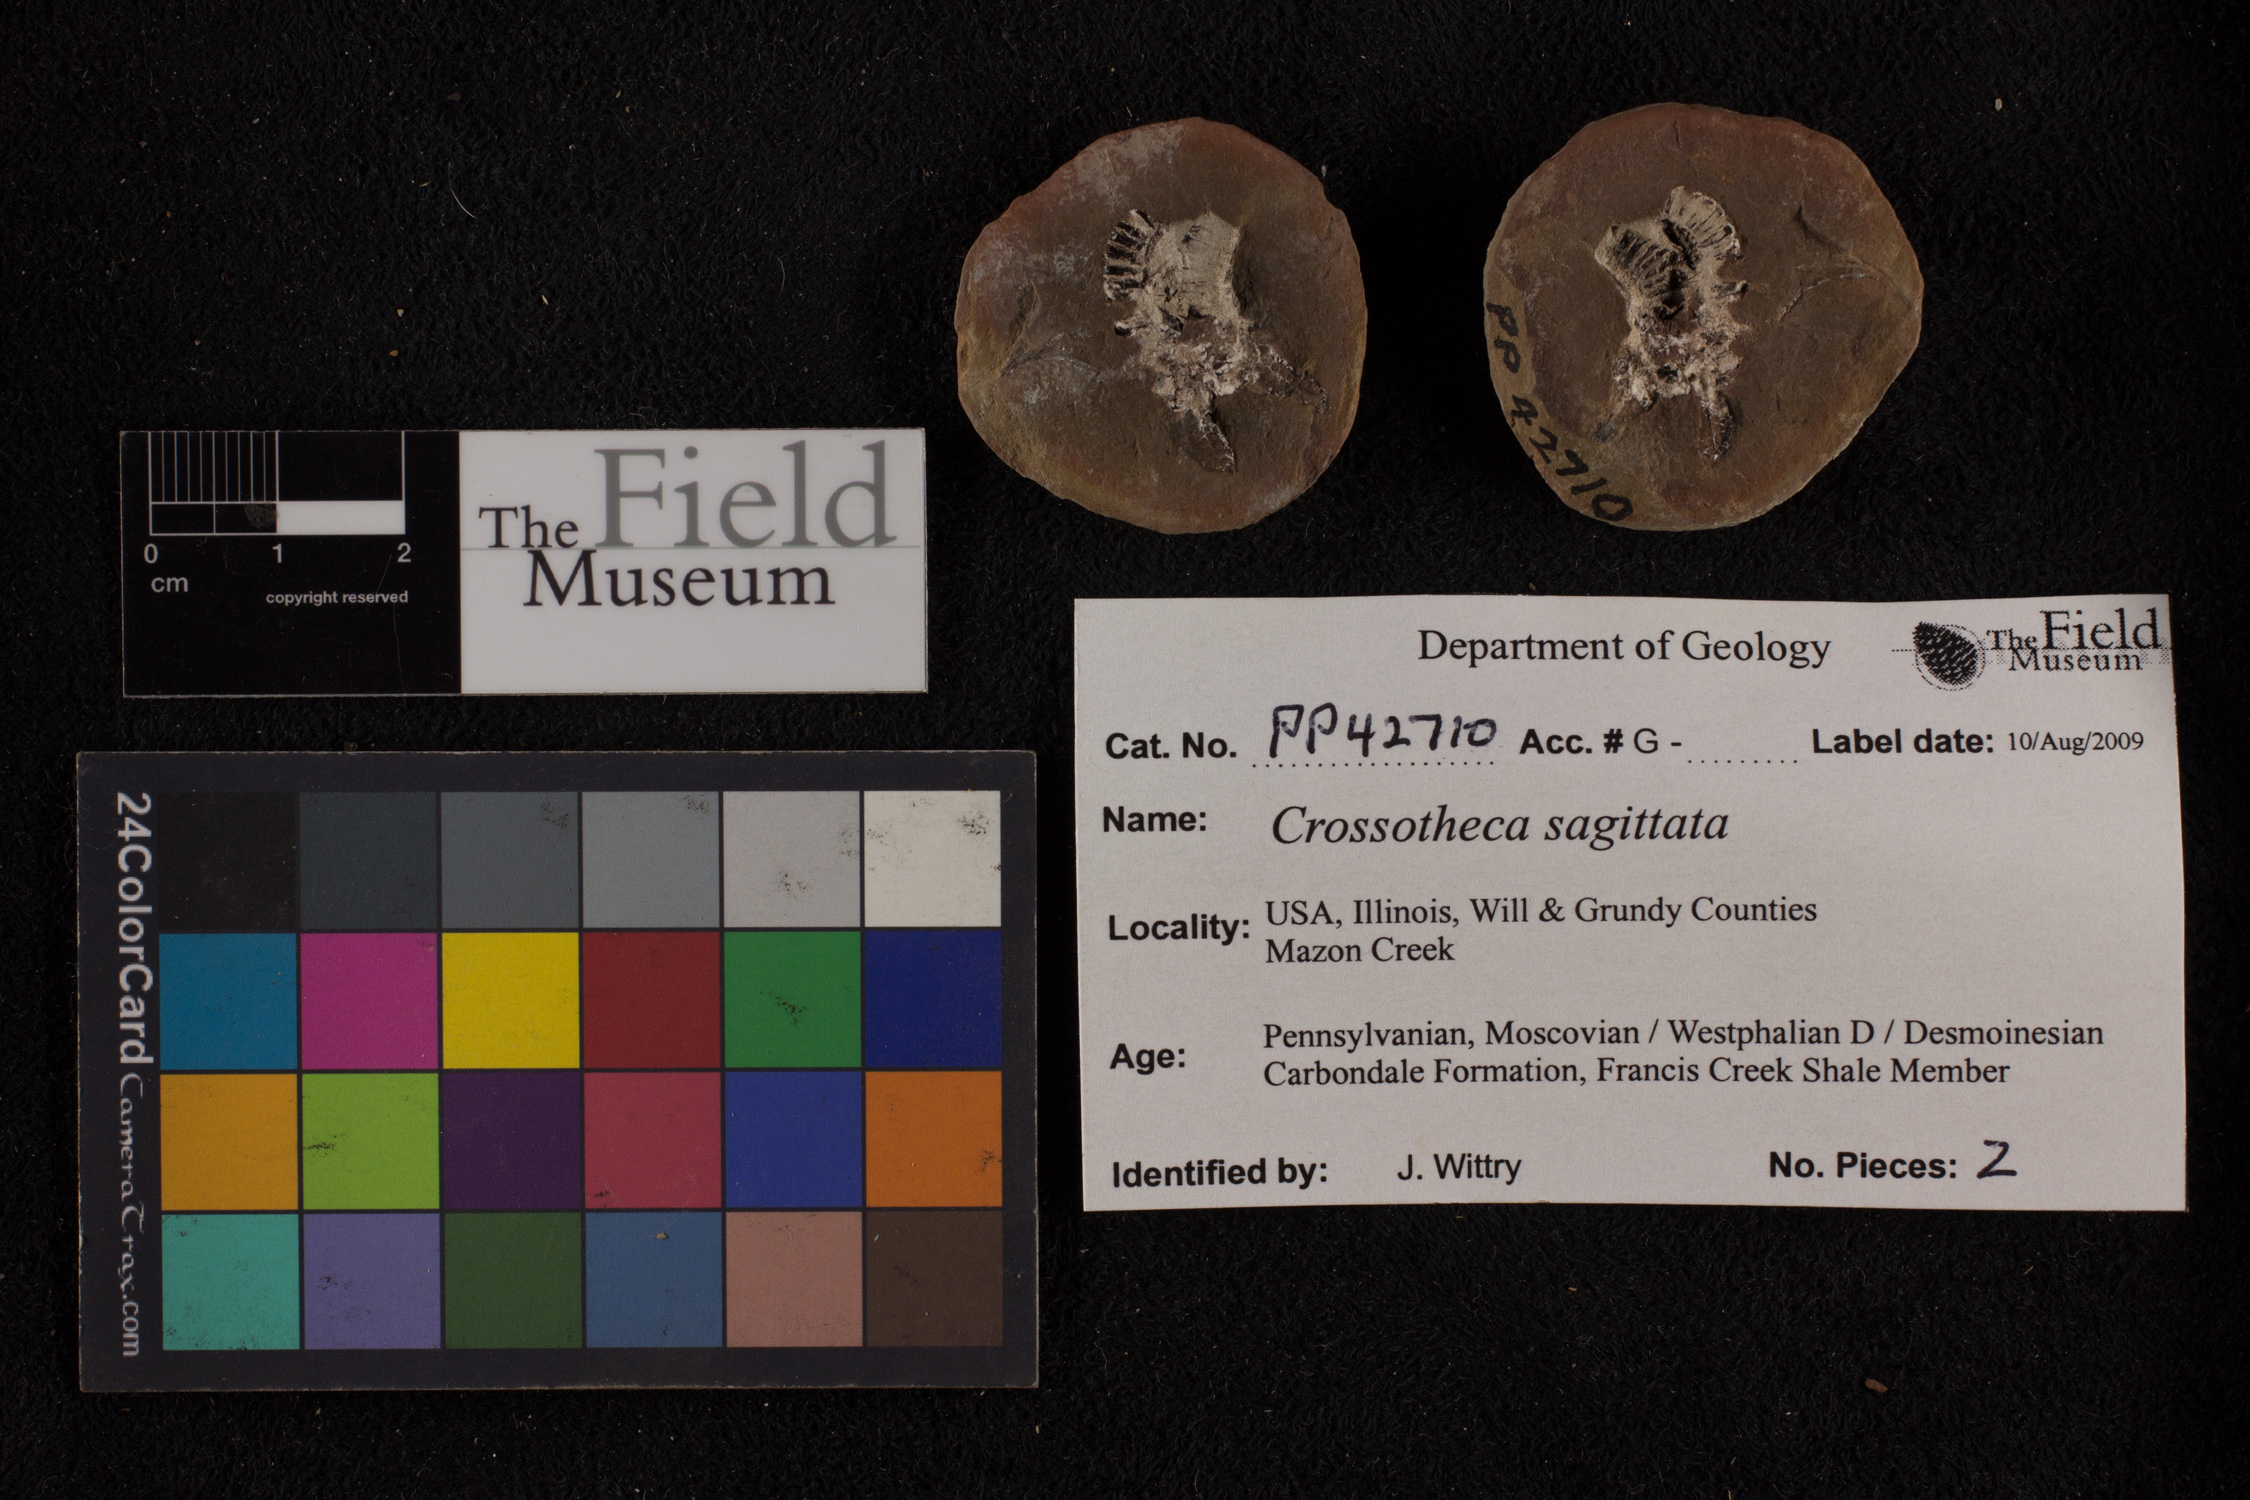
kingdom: Plantae
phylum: Tracheophyta
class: Polypodiopsida
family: Stauropteridaceae
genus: Crossotheca
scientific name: Crossotheca
